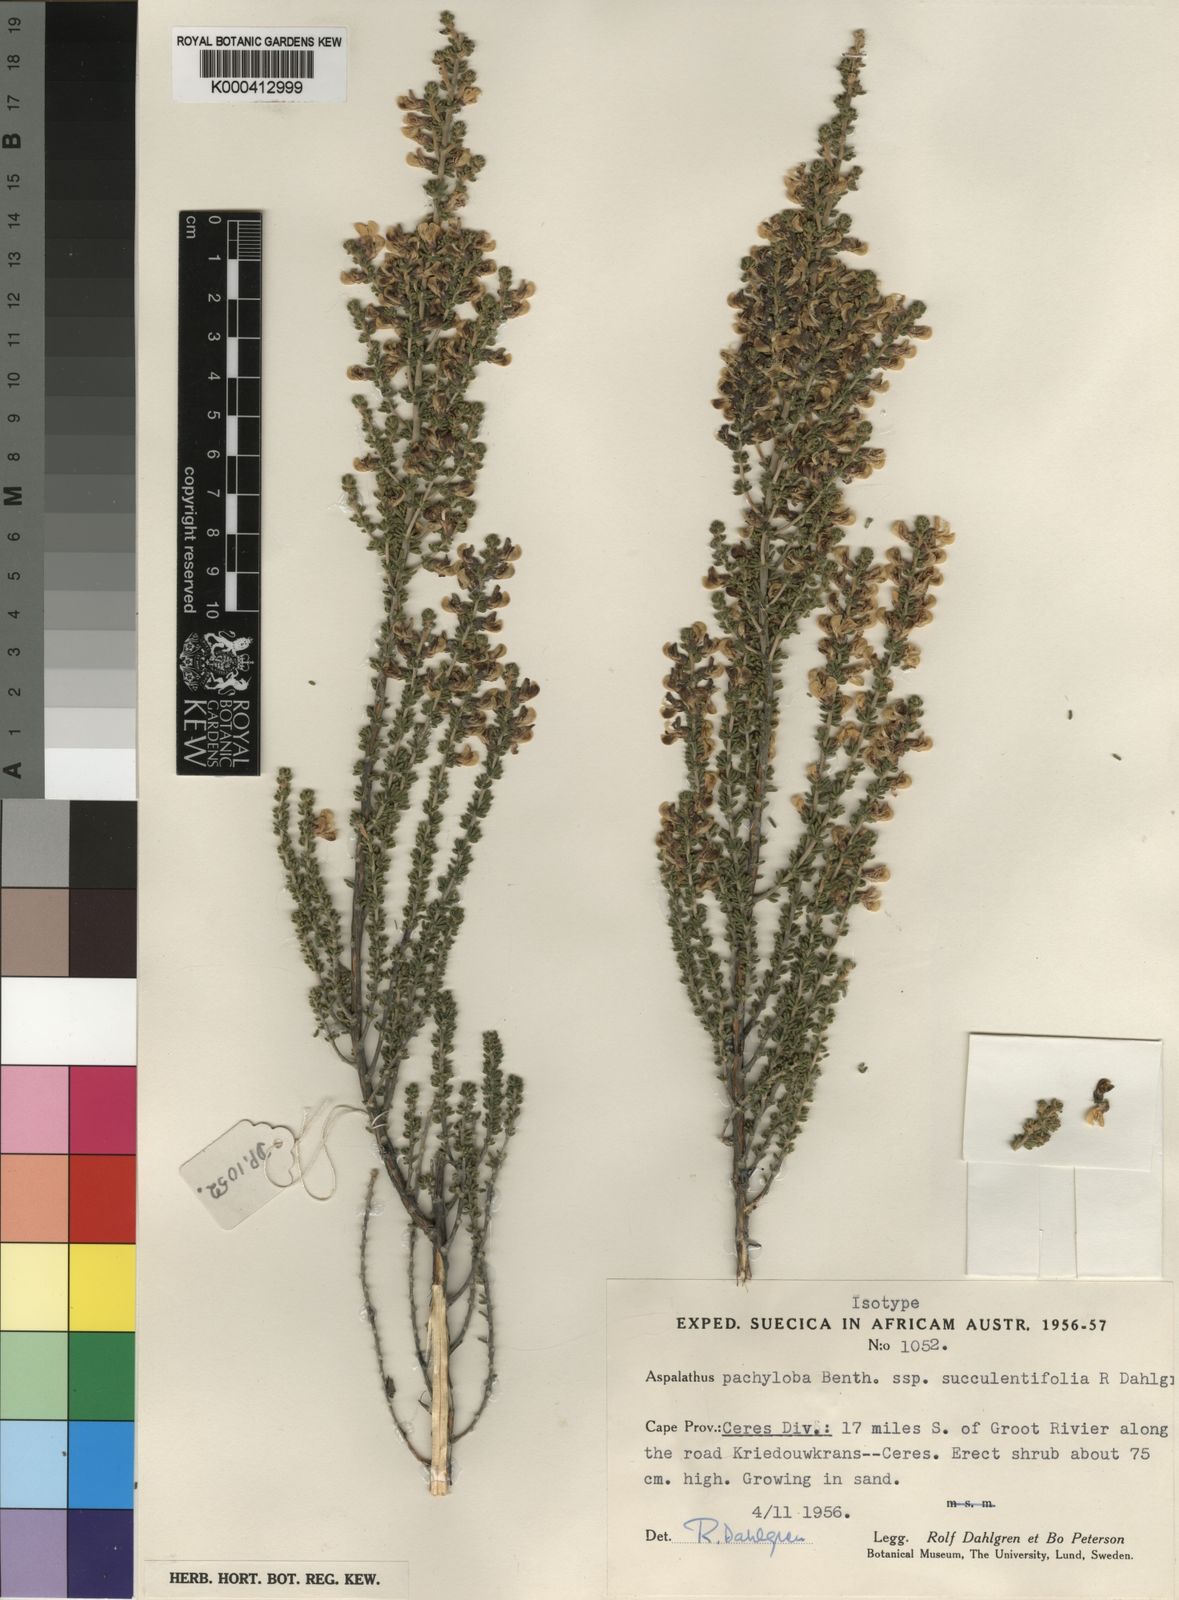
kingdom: Plantae
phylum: Tracheophyta
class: Magnoliopsida
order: Fabales
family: Fabaceae
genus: Aspalathus
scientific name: Aspalathus pachyloba
